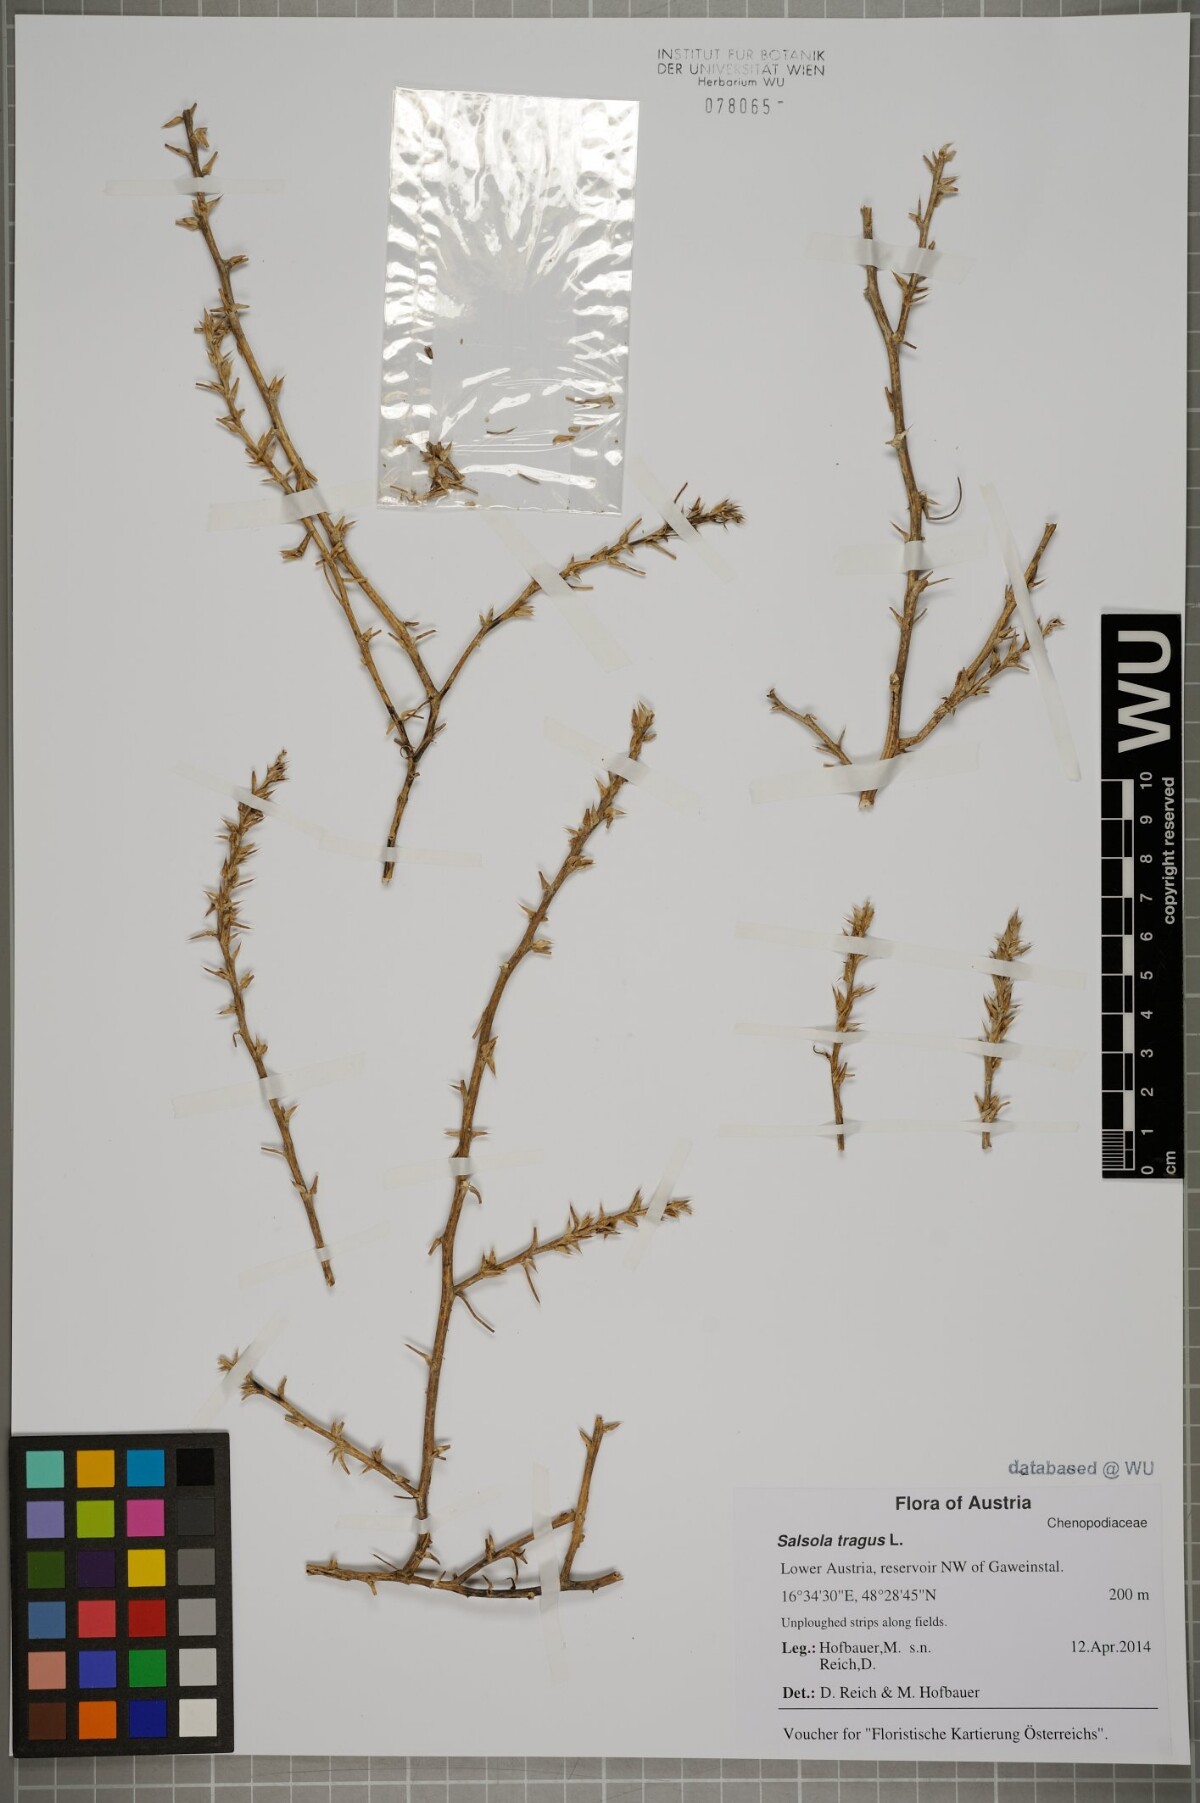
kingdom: Plantae
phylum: Tracheophyta
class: Magnoliopsida
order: Caryophyllales
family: Amaranthaceae
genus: Salsola
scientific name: Salsola tragus
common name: Prickly russian thistle
